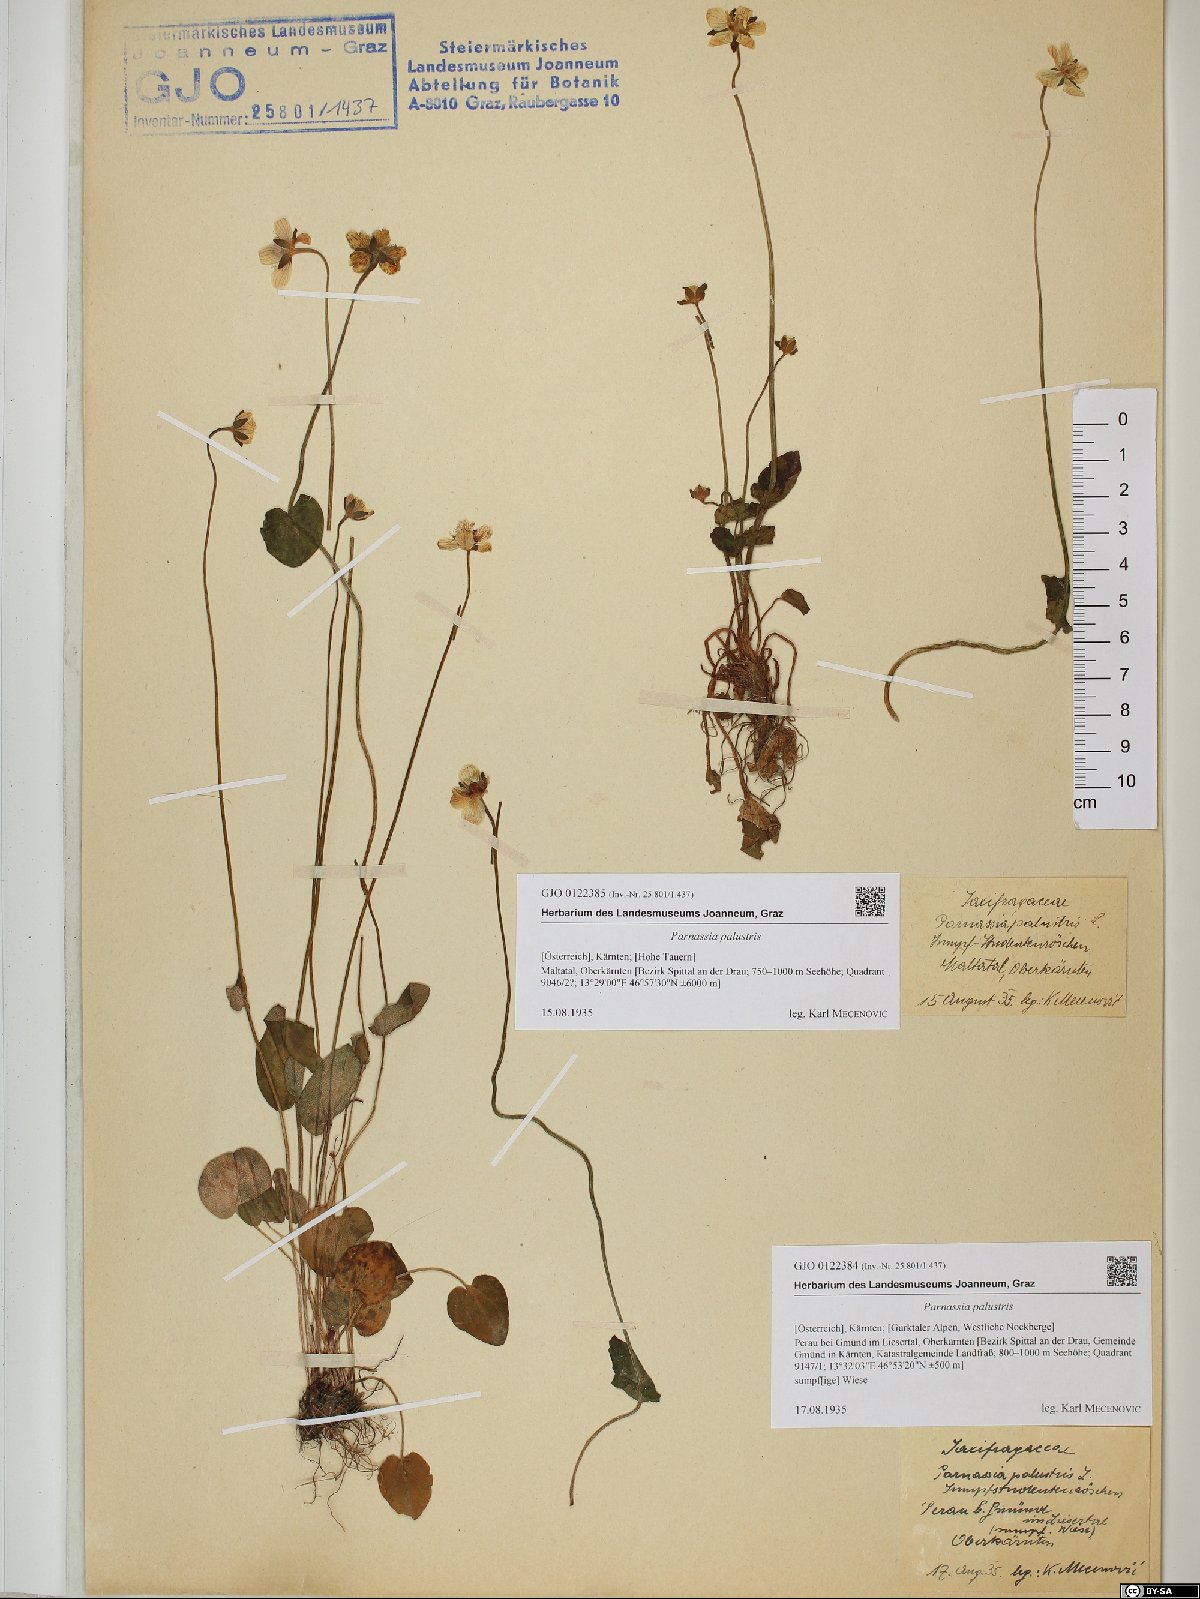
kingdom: Plantae
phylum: Tracheophyta
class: Magnoliopsida
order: Celastrales
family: Parnassiaceae
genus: Parnassia
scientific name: Parnassia palustris
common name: Grass-of-parnassus
